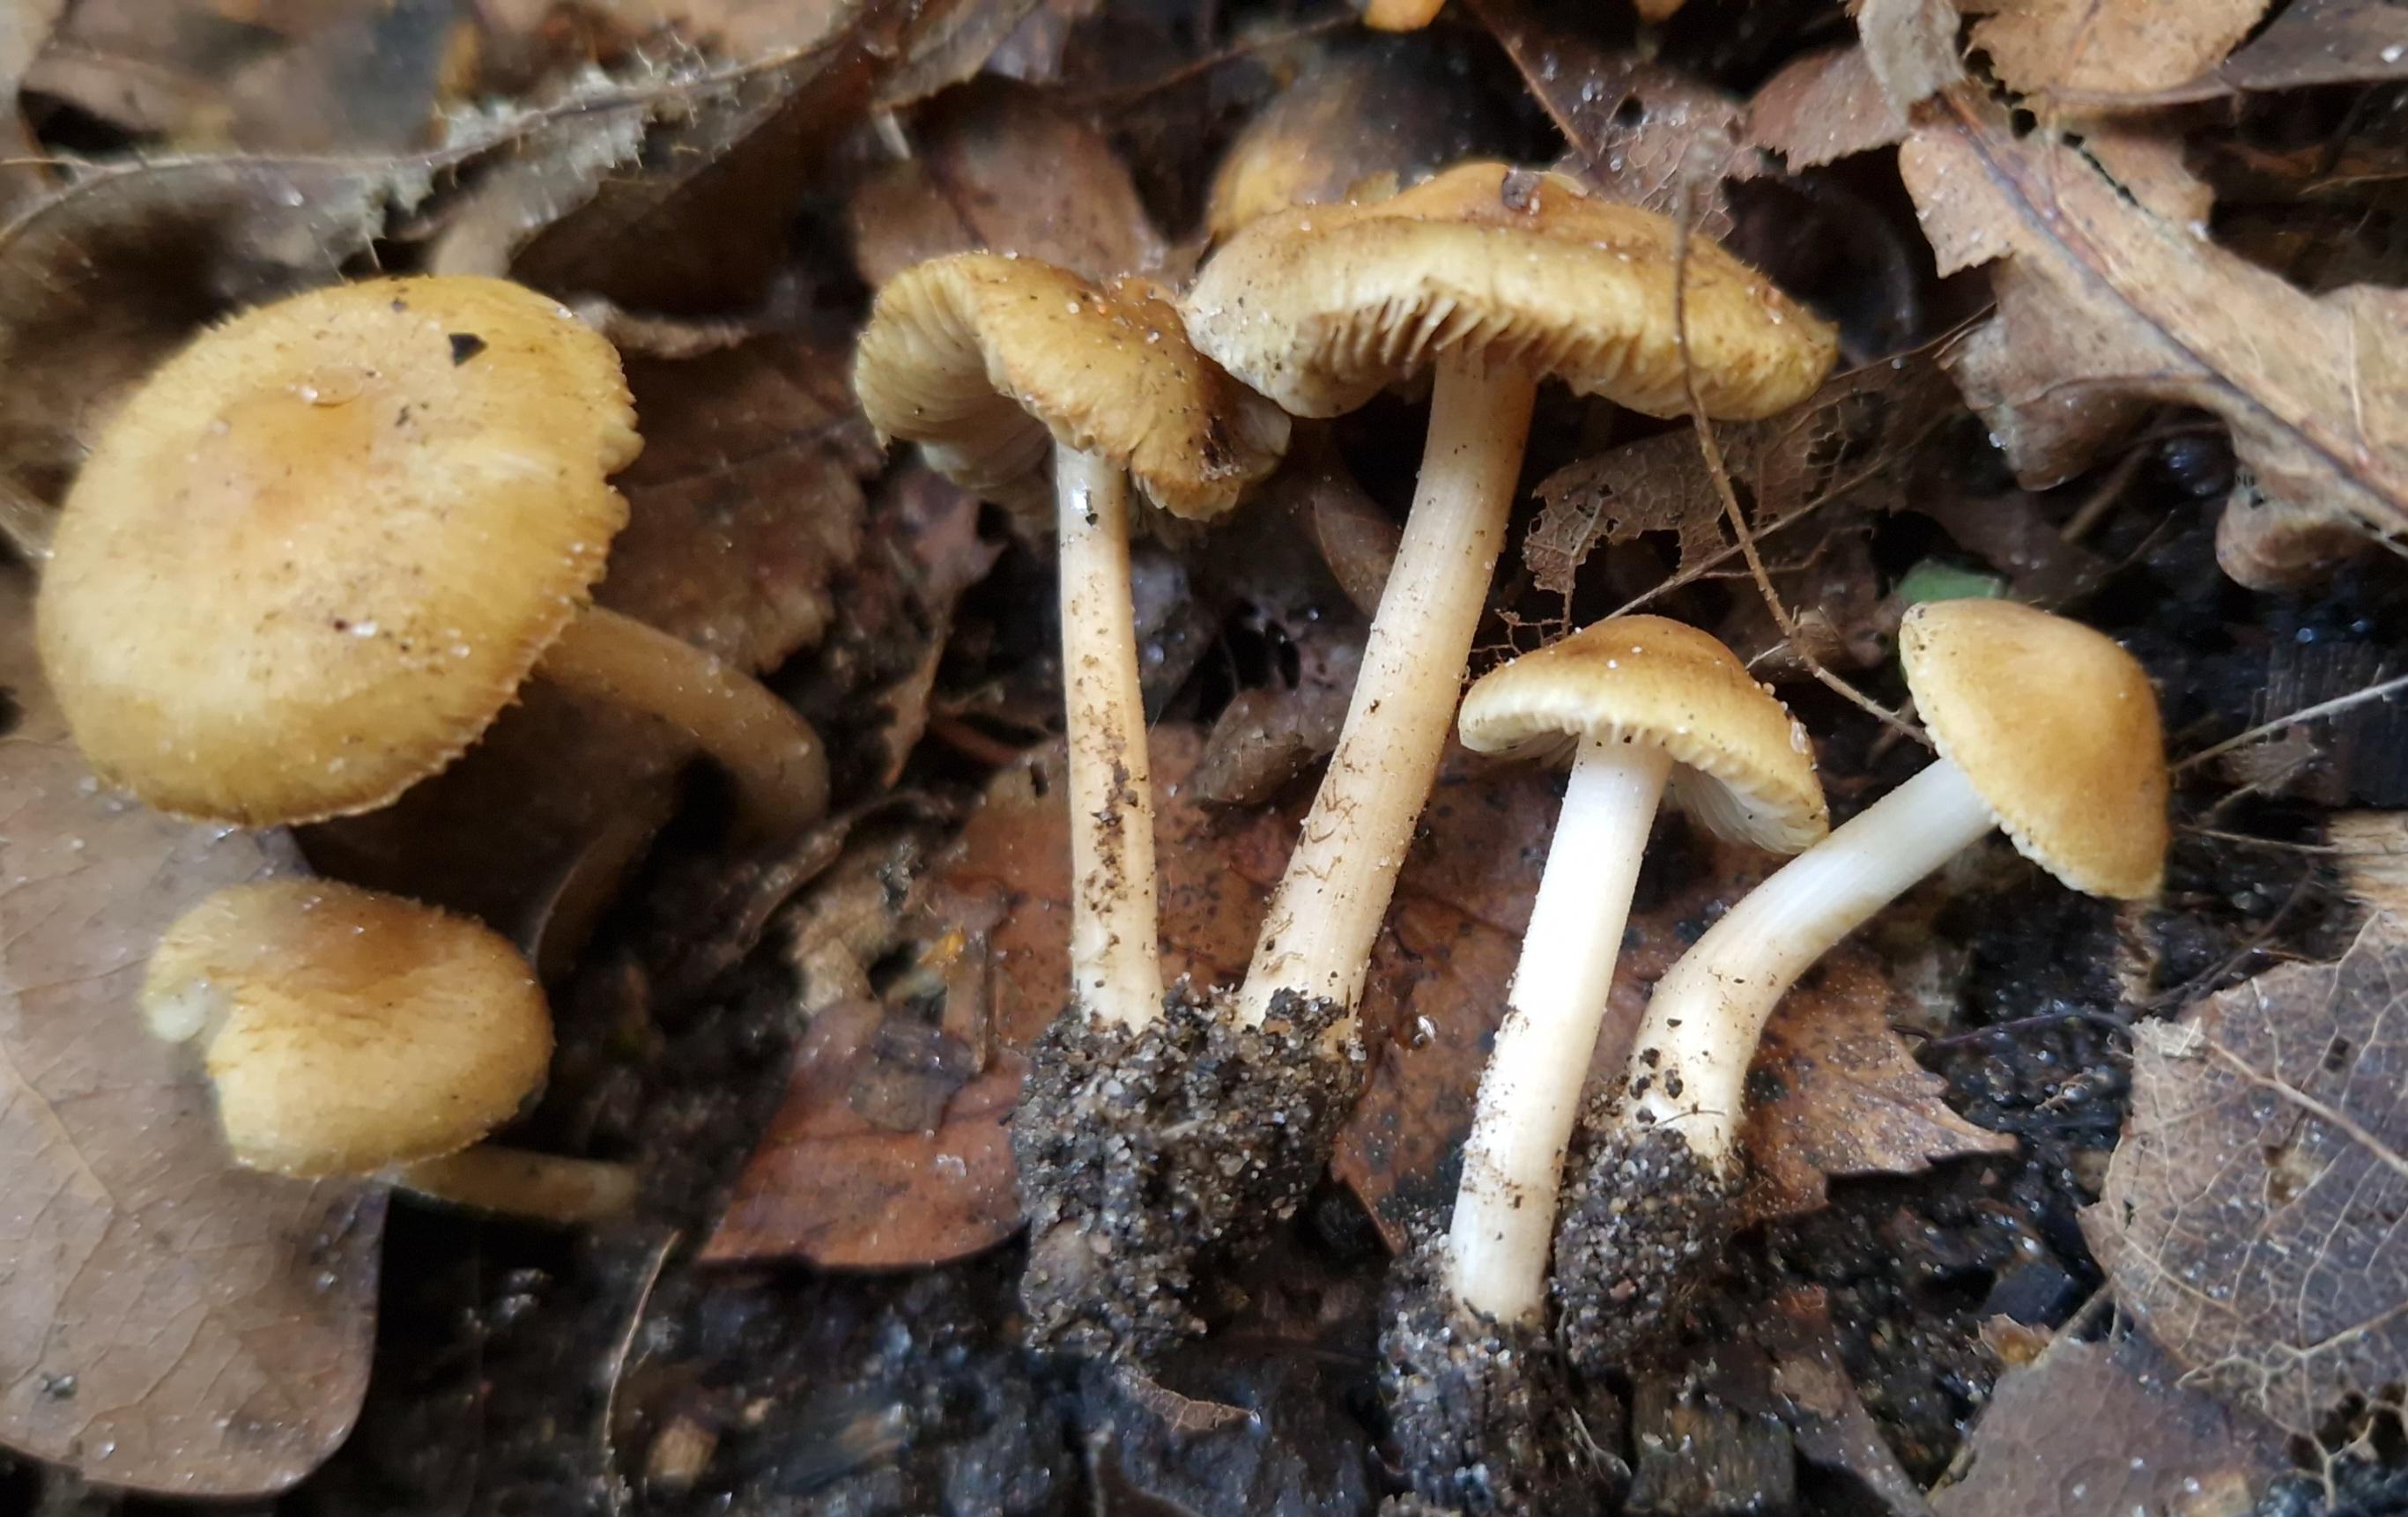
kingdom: Fungi
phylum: Basidiomycota
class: Agaricomycetes
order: Agaricales
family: Inocybaceae
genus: Inocybe
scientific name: Inocybe hirtella
